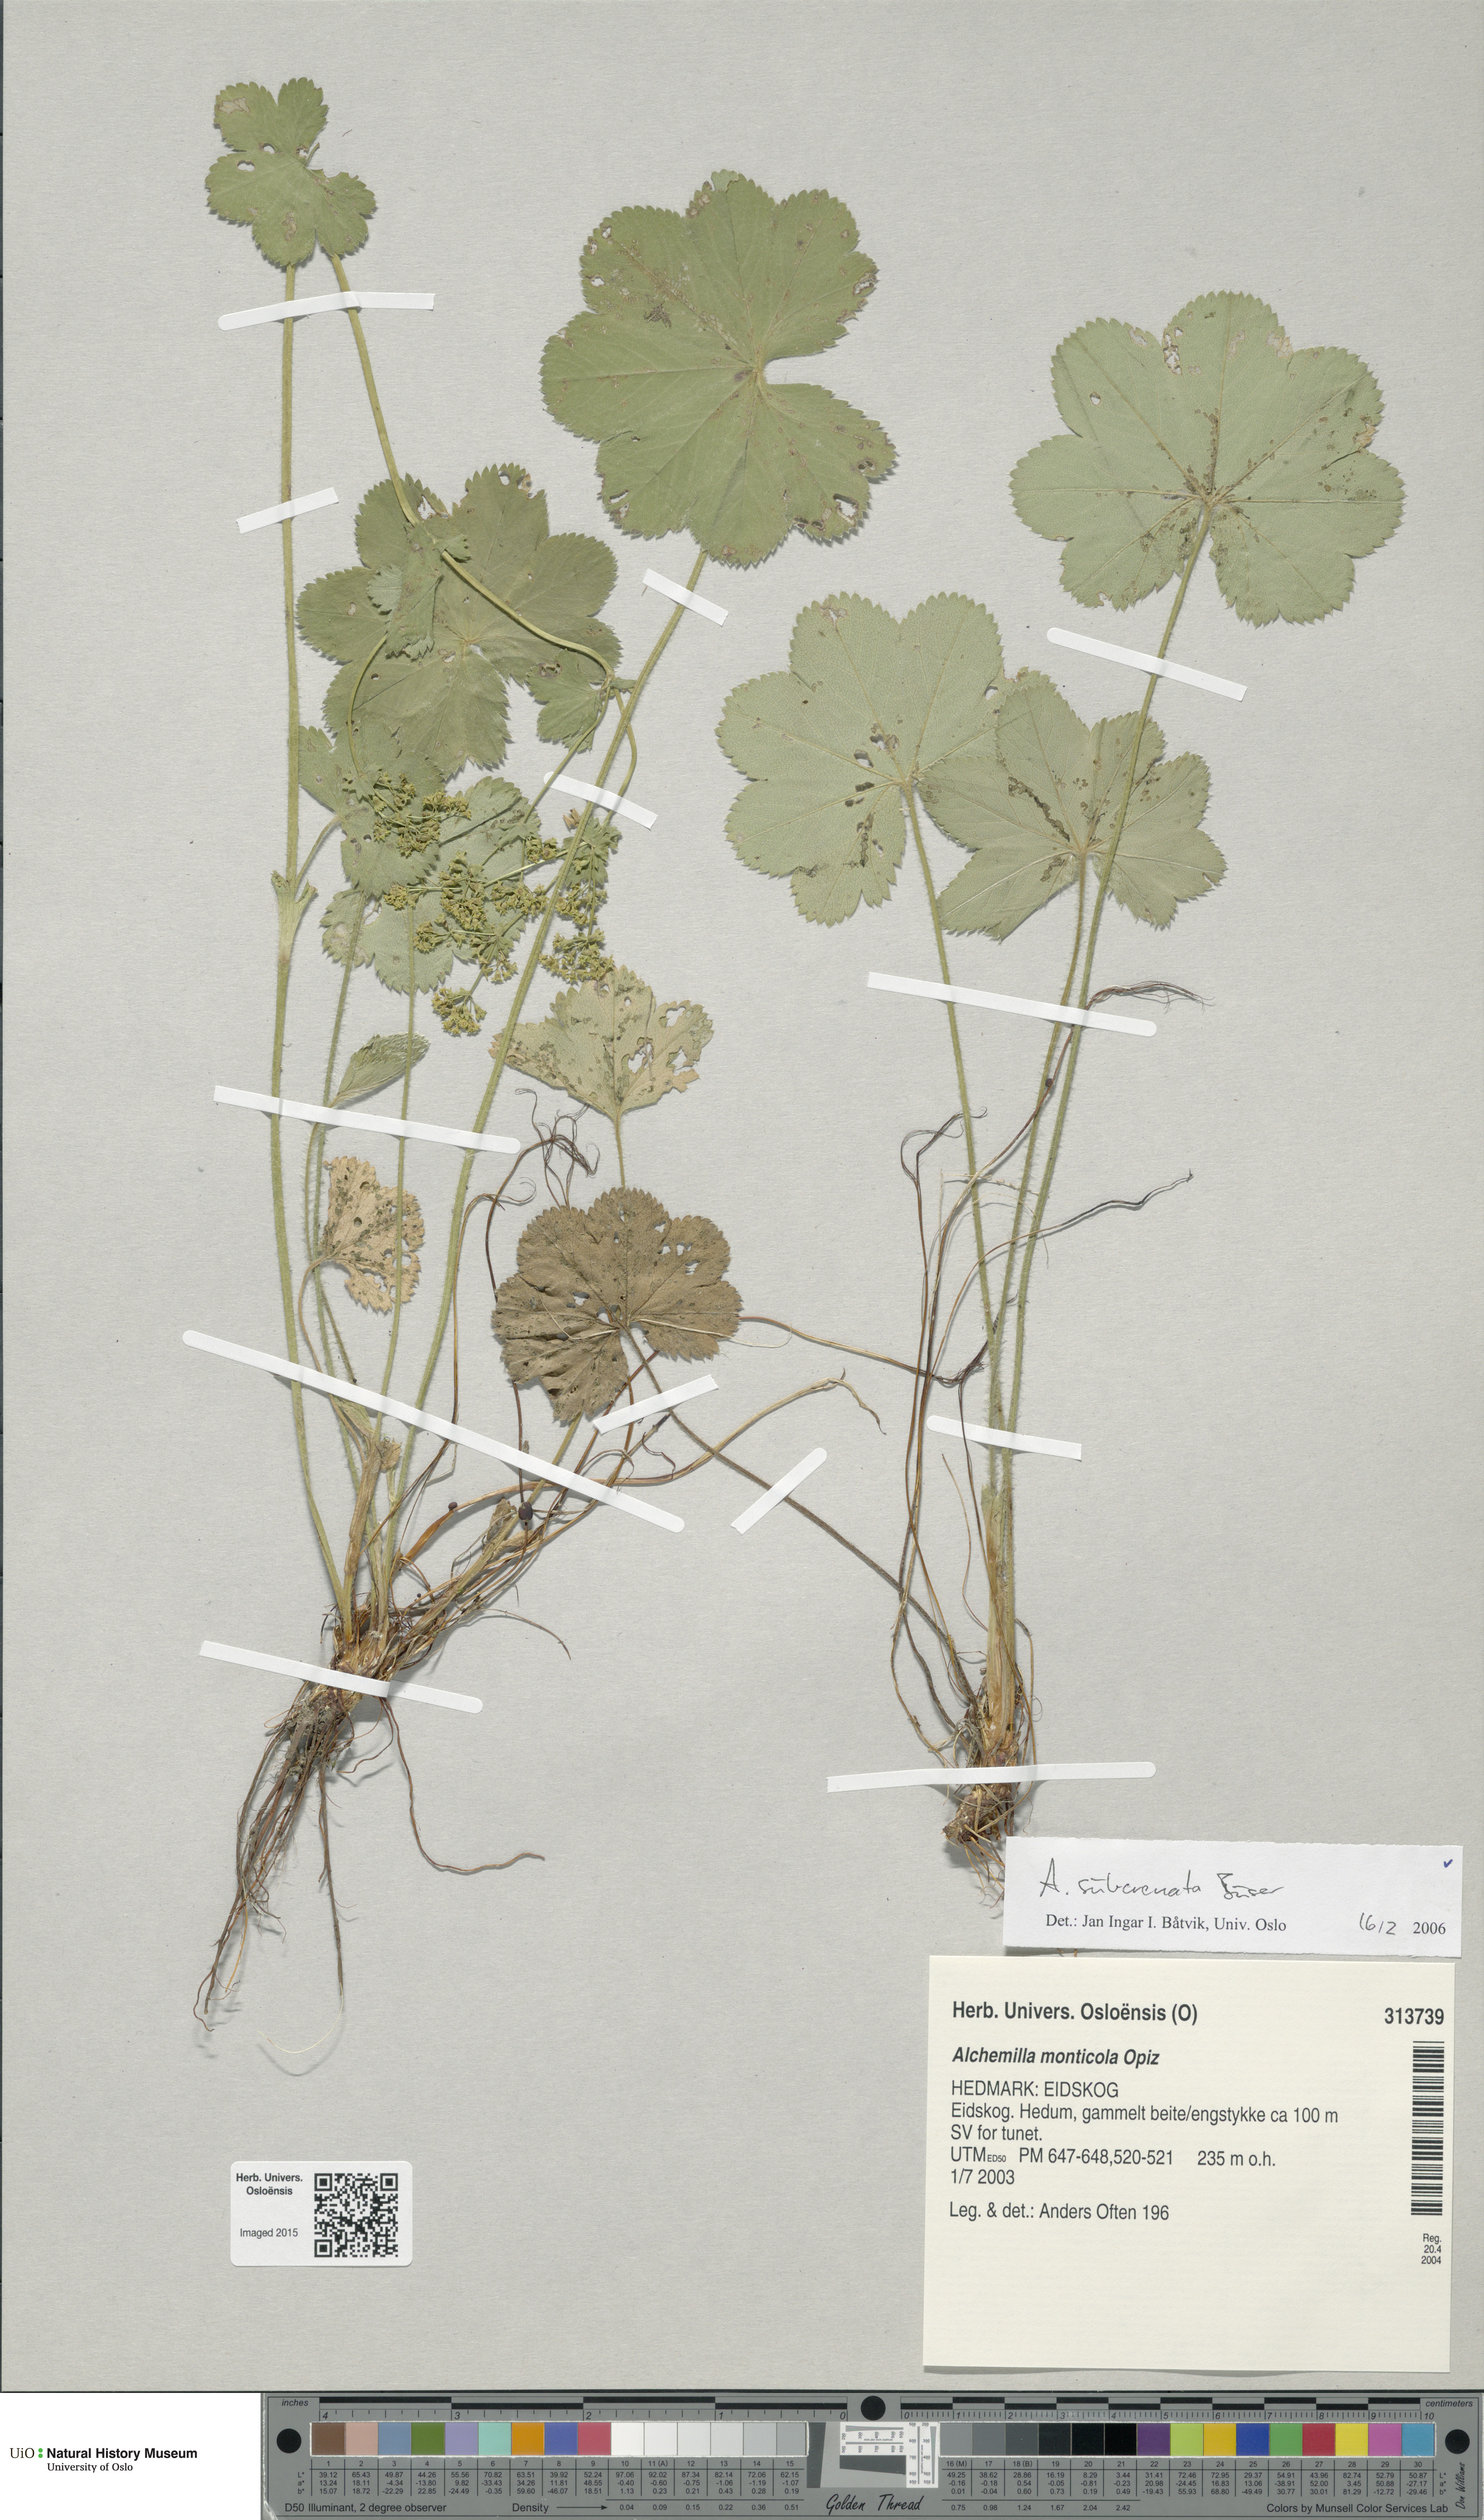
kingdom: Plantae
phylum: Tracheophyta
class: Magnoliopsida
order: Rosales
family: Rosaceae
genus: Alchemilla
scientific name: Alchemilla subcrenata
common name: Broadtooth lady's mantle
